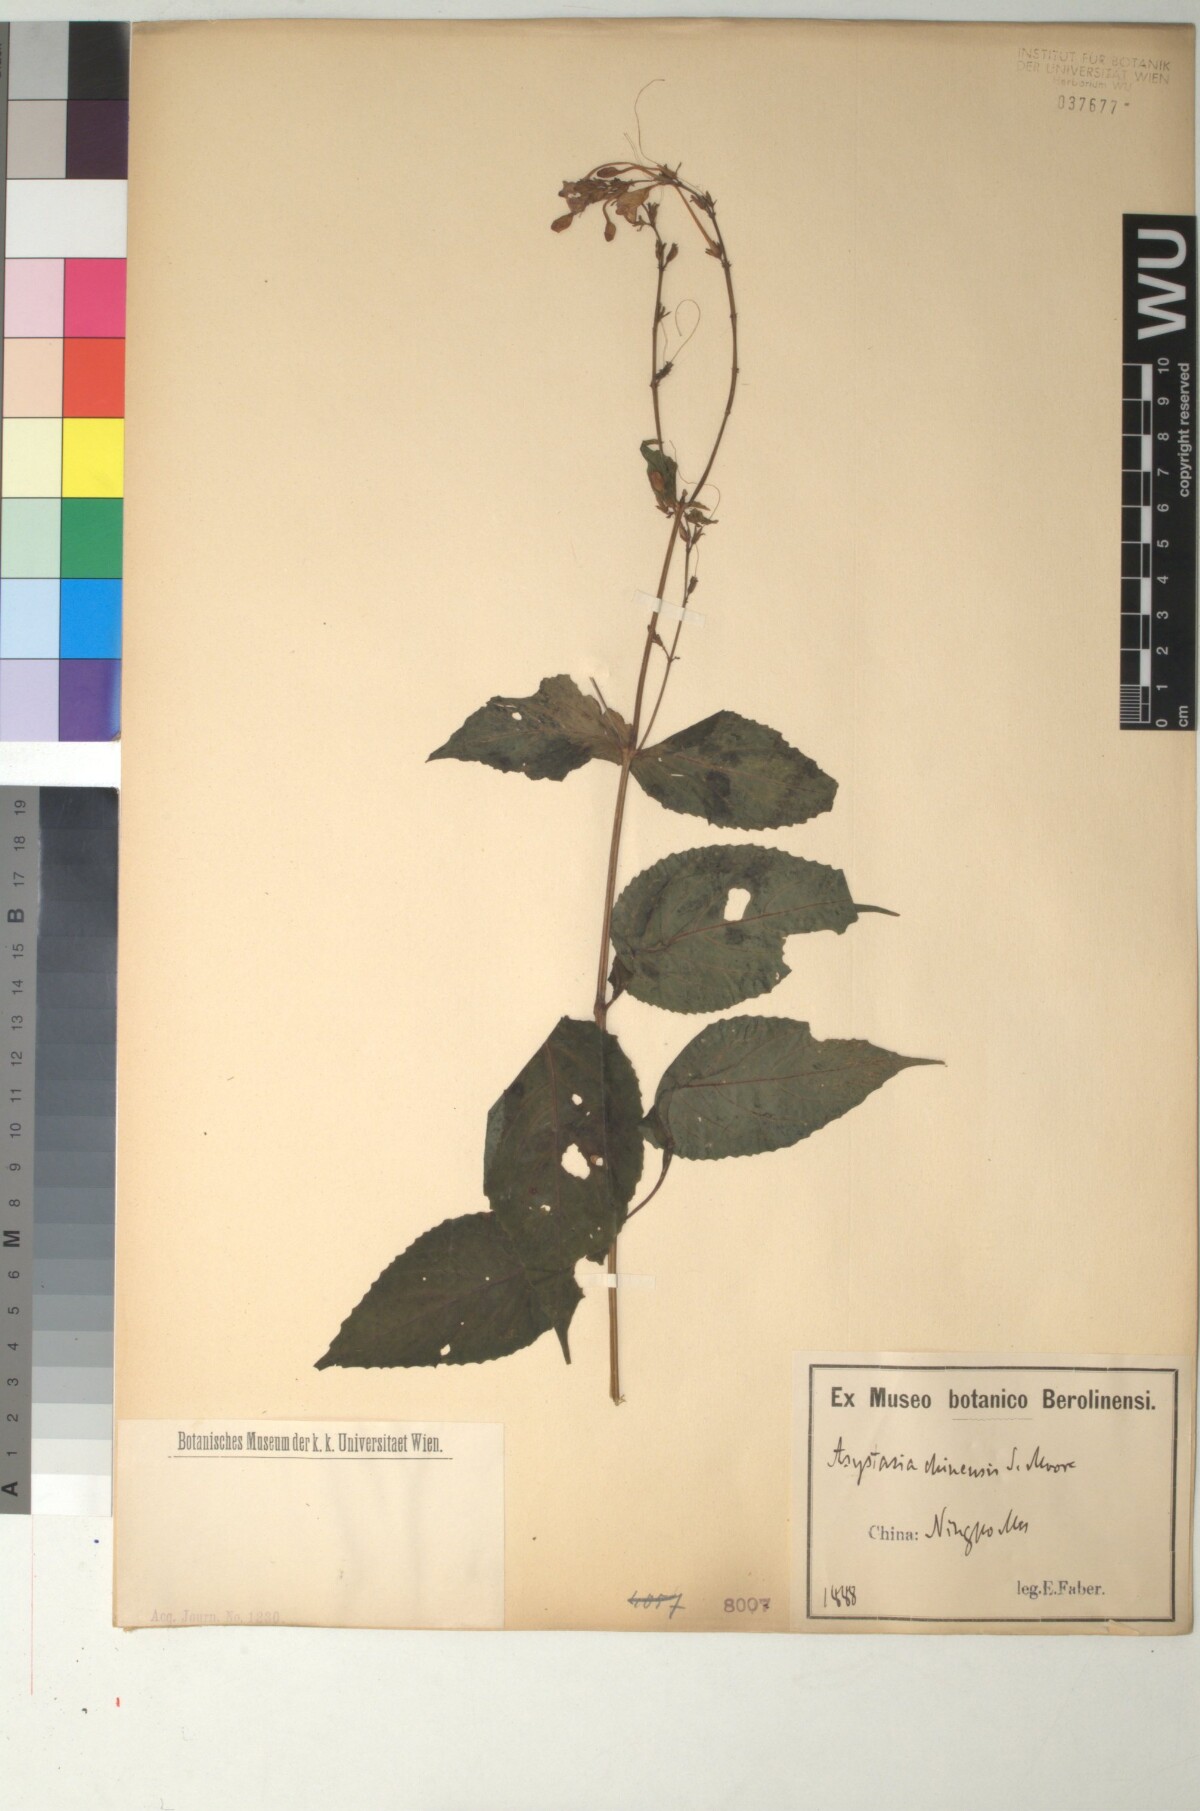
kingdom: Plantae
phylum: Tracheophyta
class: Magnoliopsida
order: Lamiales
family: Acanthaceae
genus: Mackaya
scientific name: Mackaya neesiana
